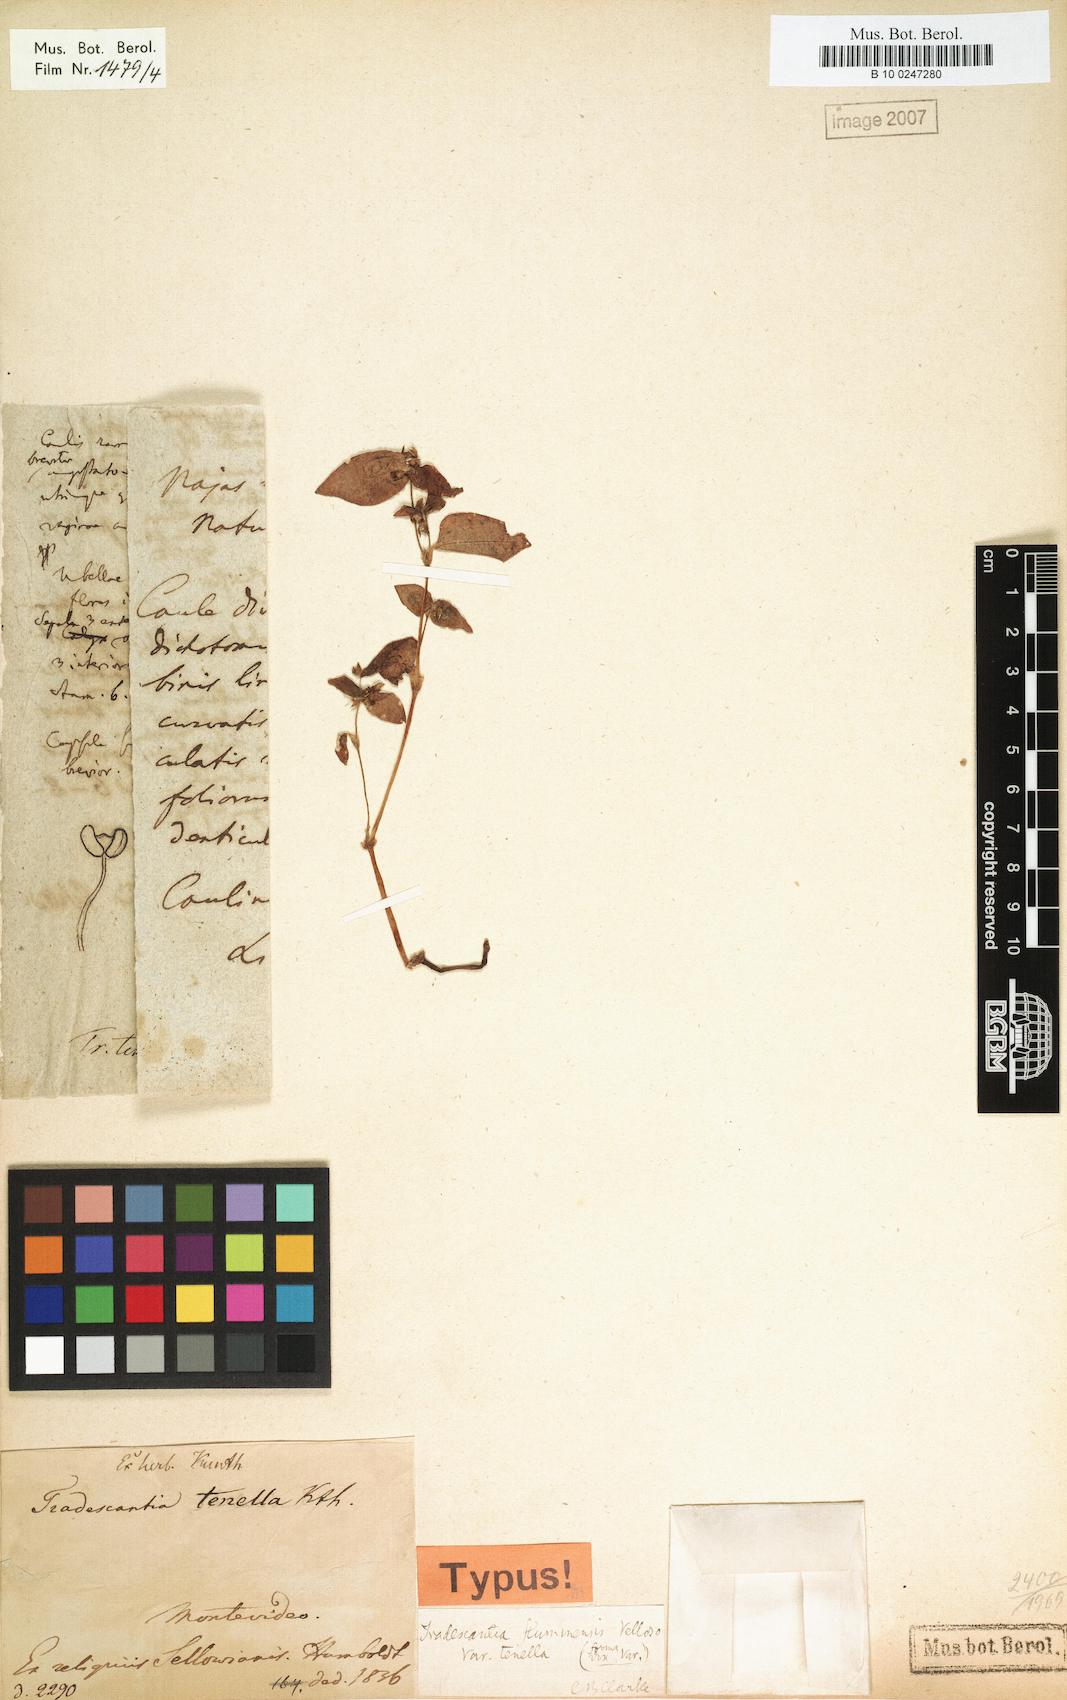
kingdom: Plantae
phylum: Tracheophyta
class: Liliopsida
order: Commelinales
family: Commelinaceae
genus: Tradescantia
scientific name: Tradescantia tenella
